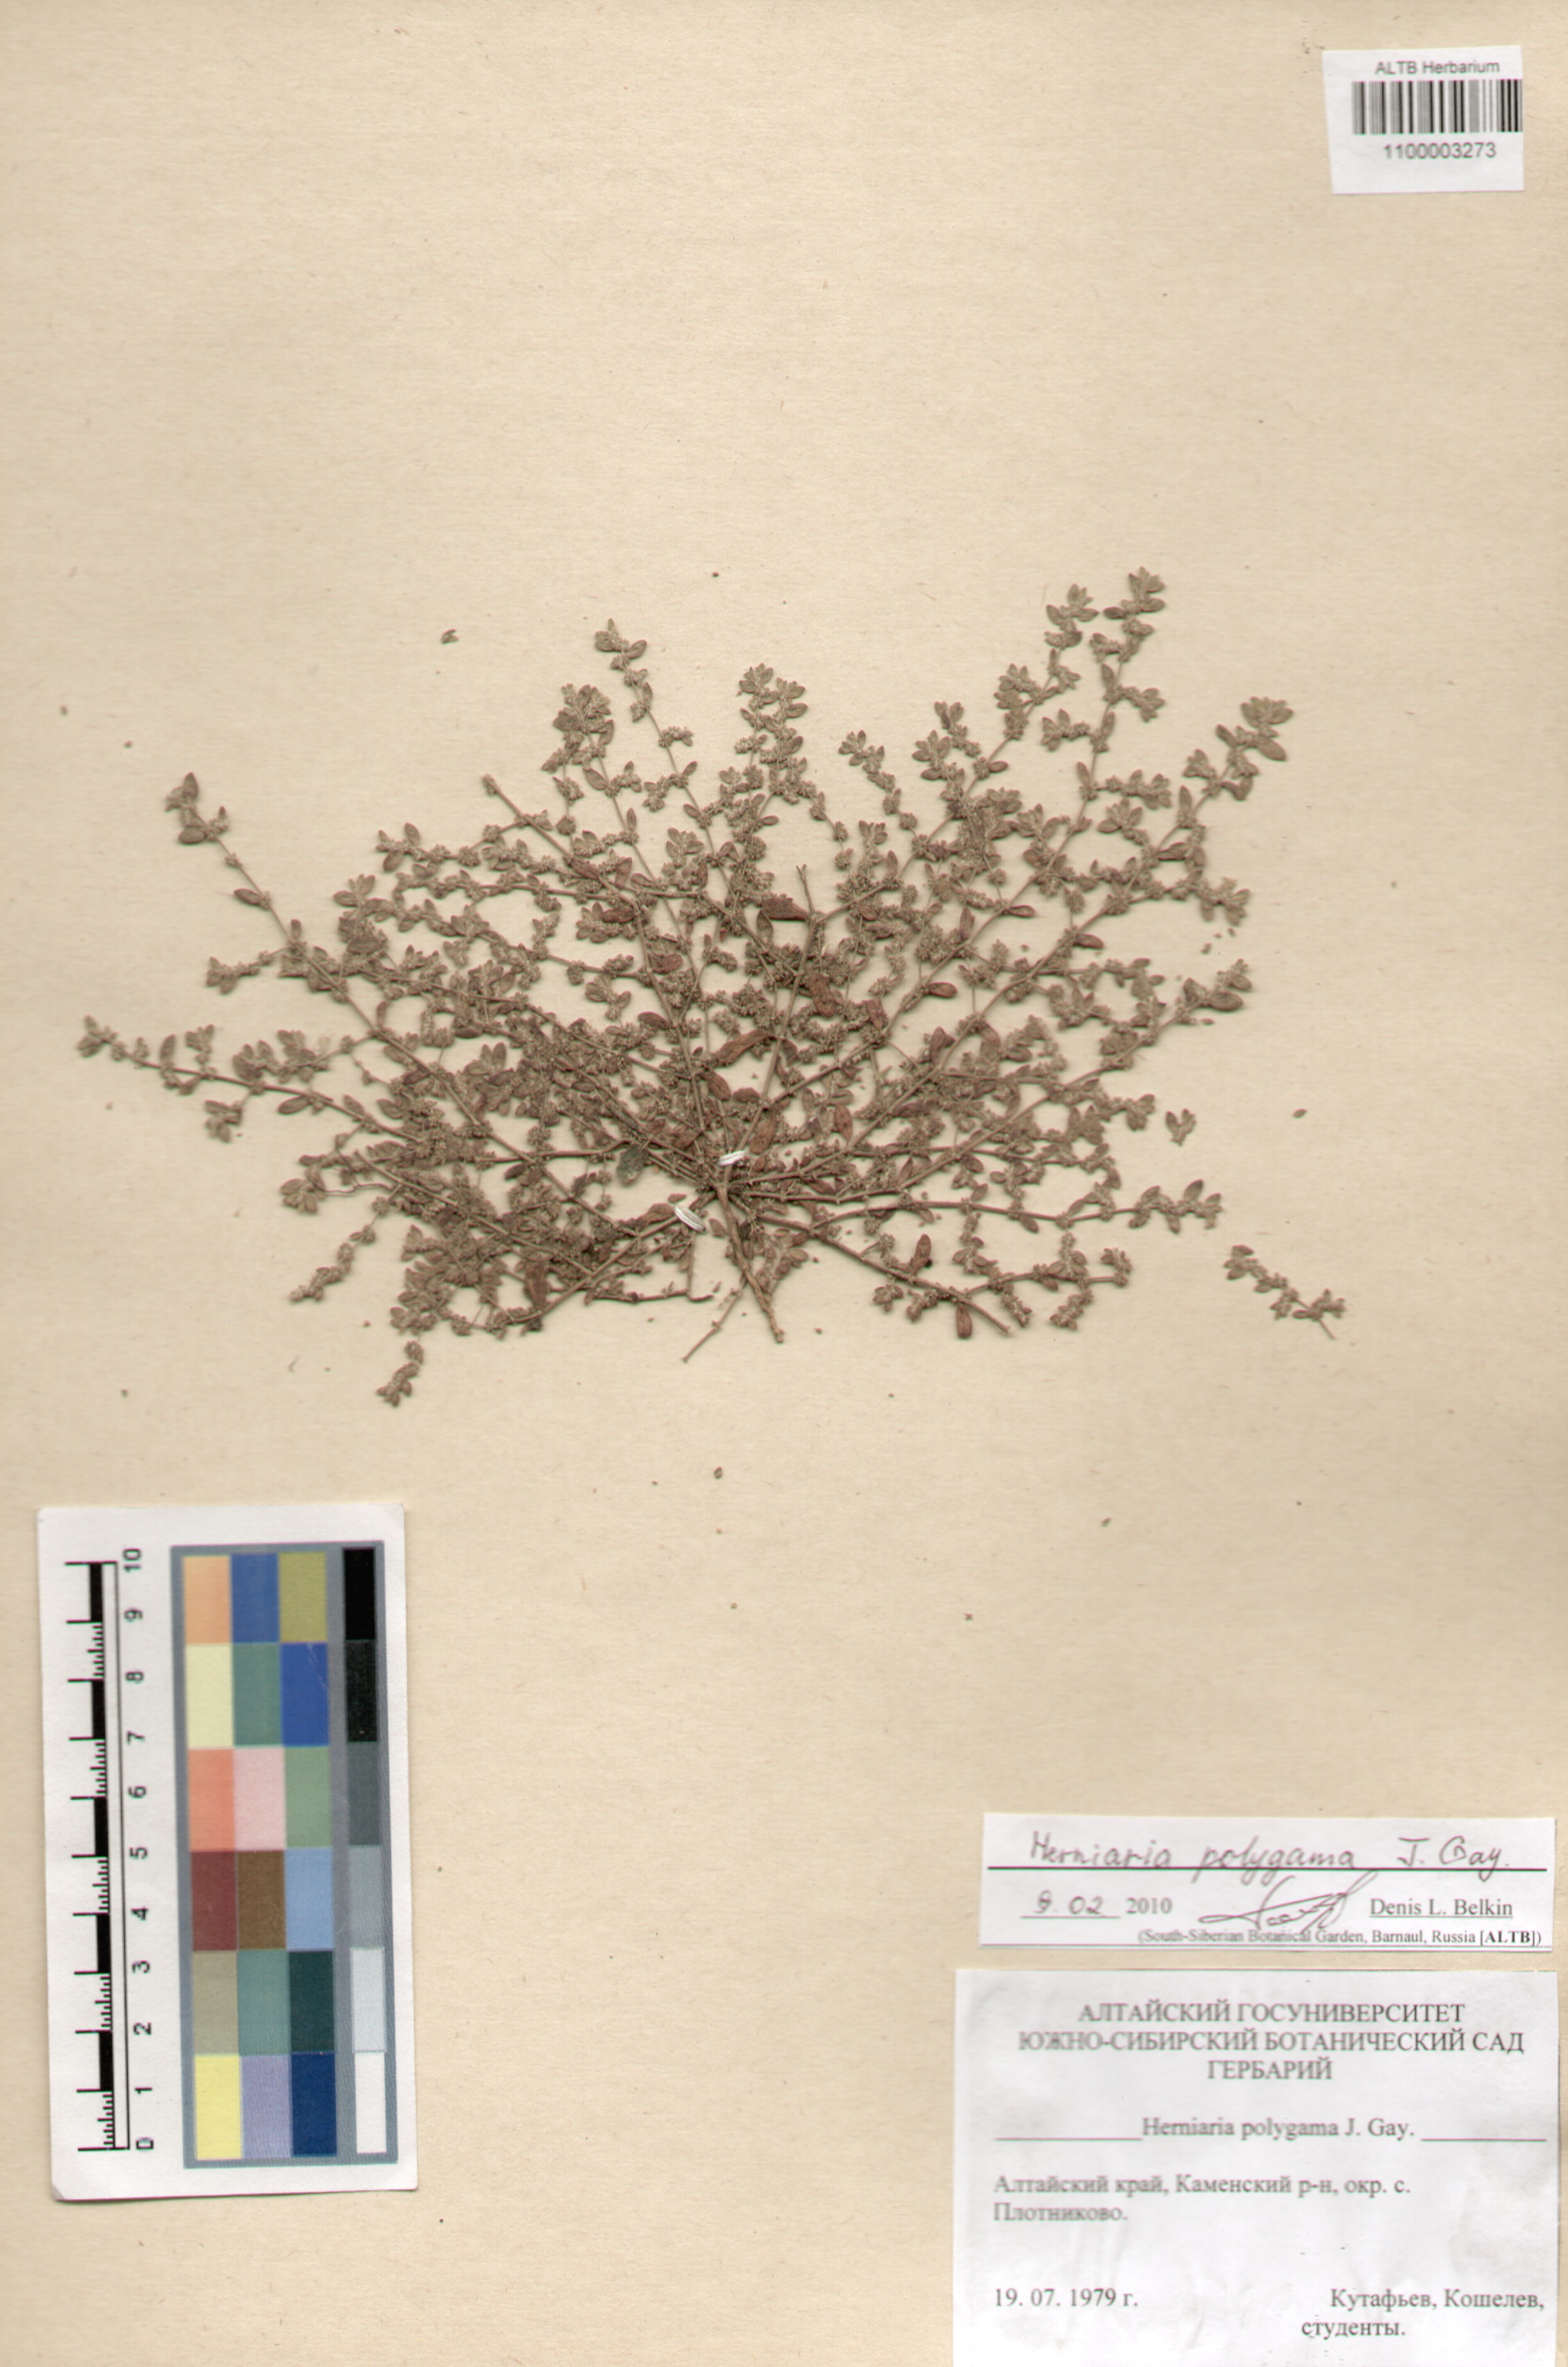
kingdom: Plantae
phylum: Tracheophyta
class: Magnoliopsida
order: Caryophyllales
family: Caryophyllaceae
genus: Herniaria
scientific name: Herniaria polygama
